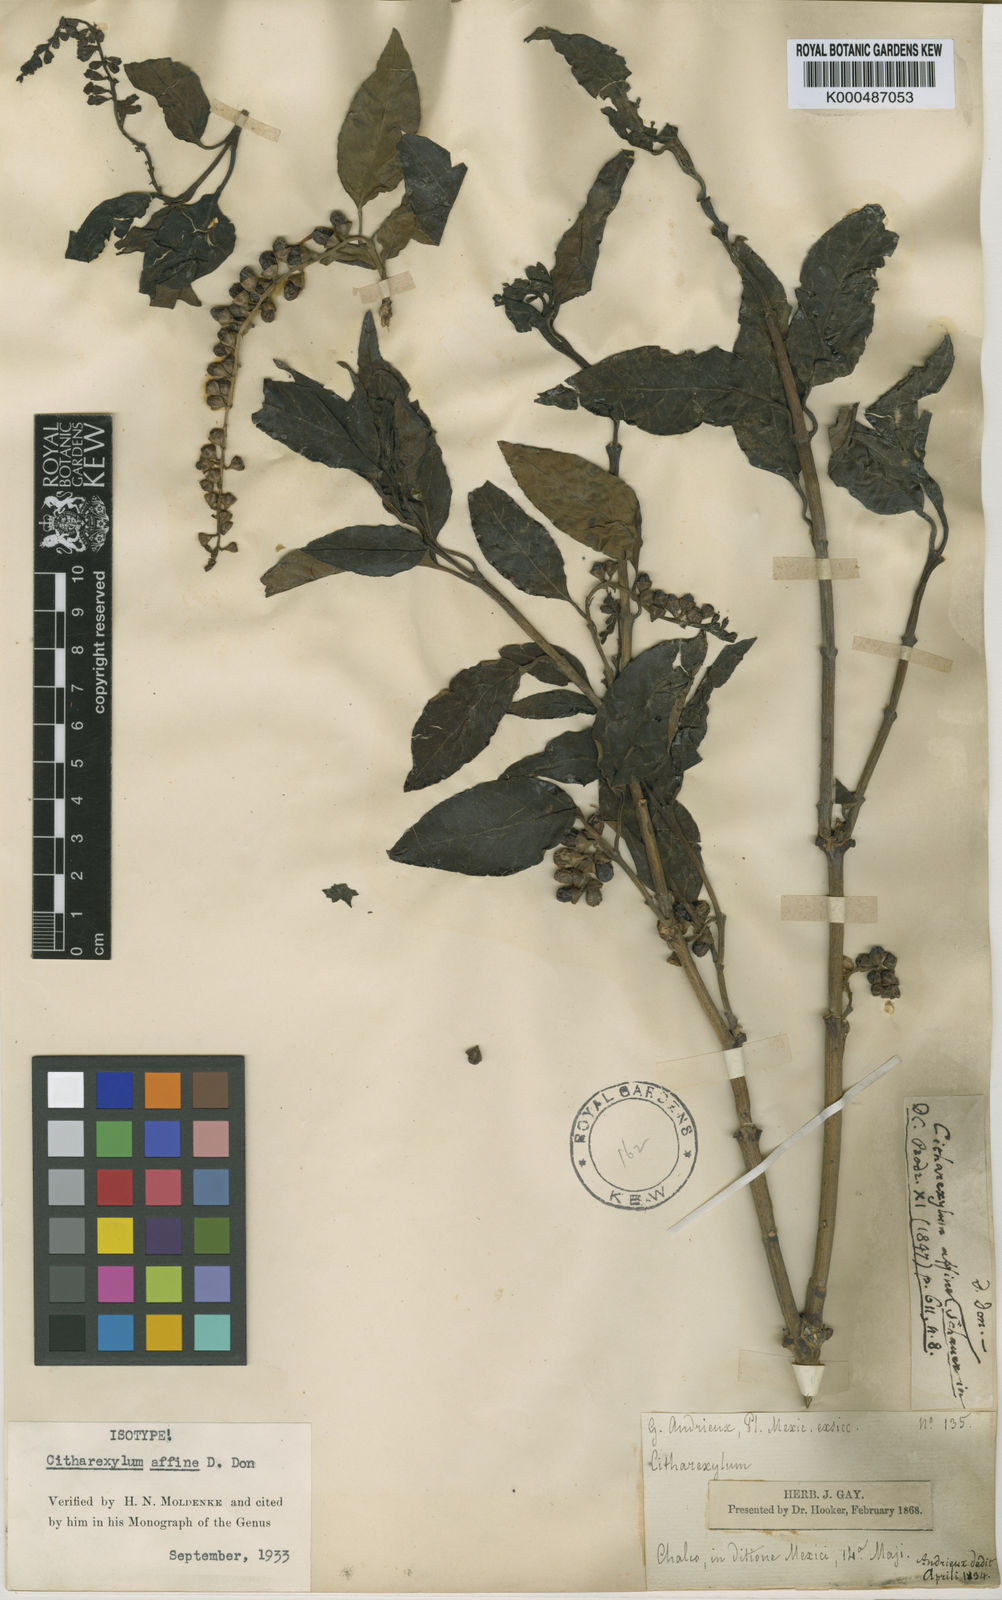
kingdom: Plantae
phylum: Tracheophyta
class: Magnoliopsida
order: Lamiales
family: Verbenaceae
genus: Citharexylum
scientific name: Citharexylum affine
